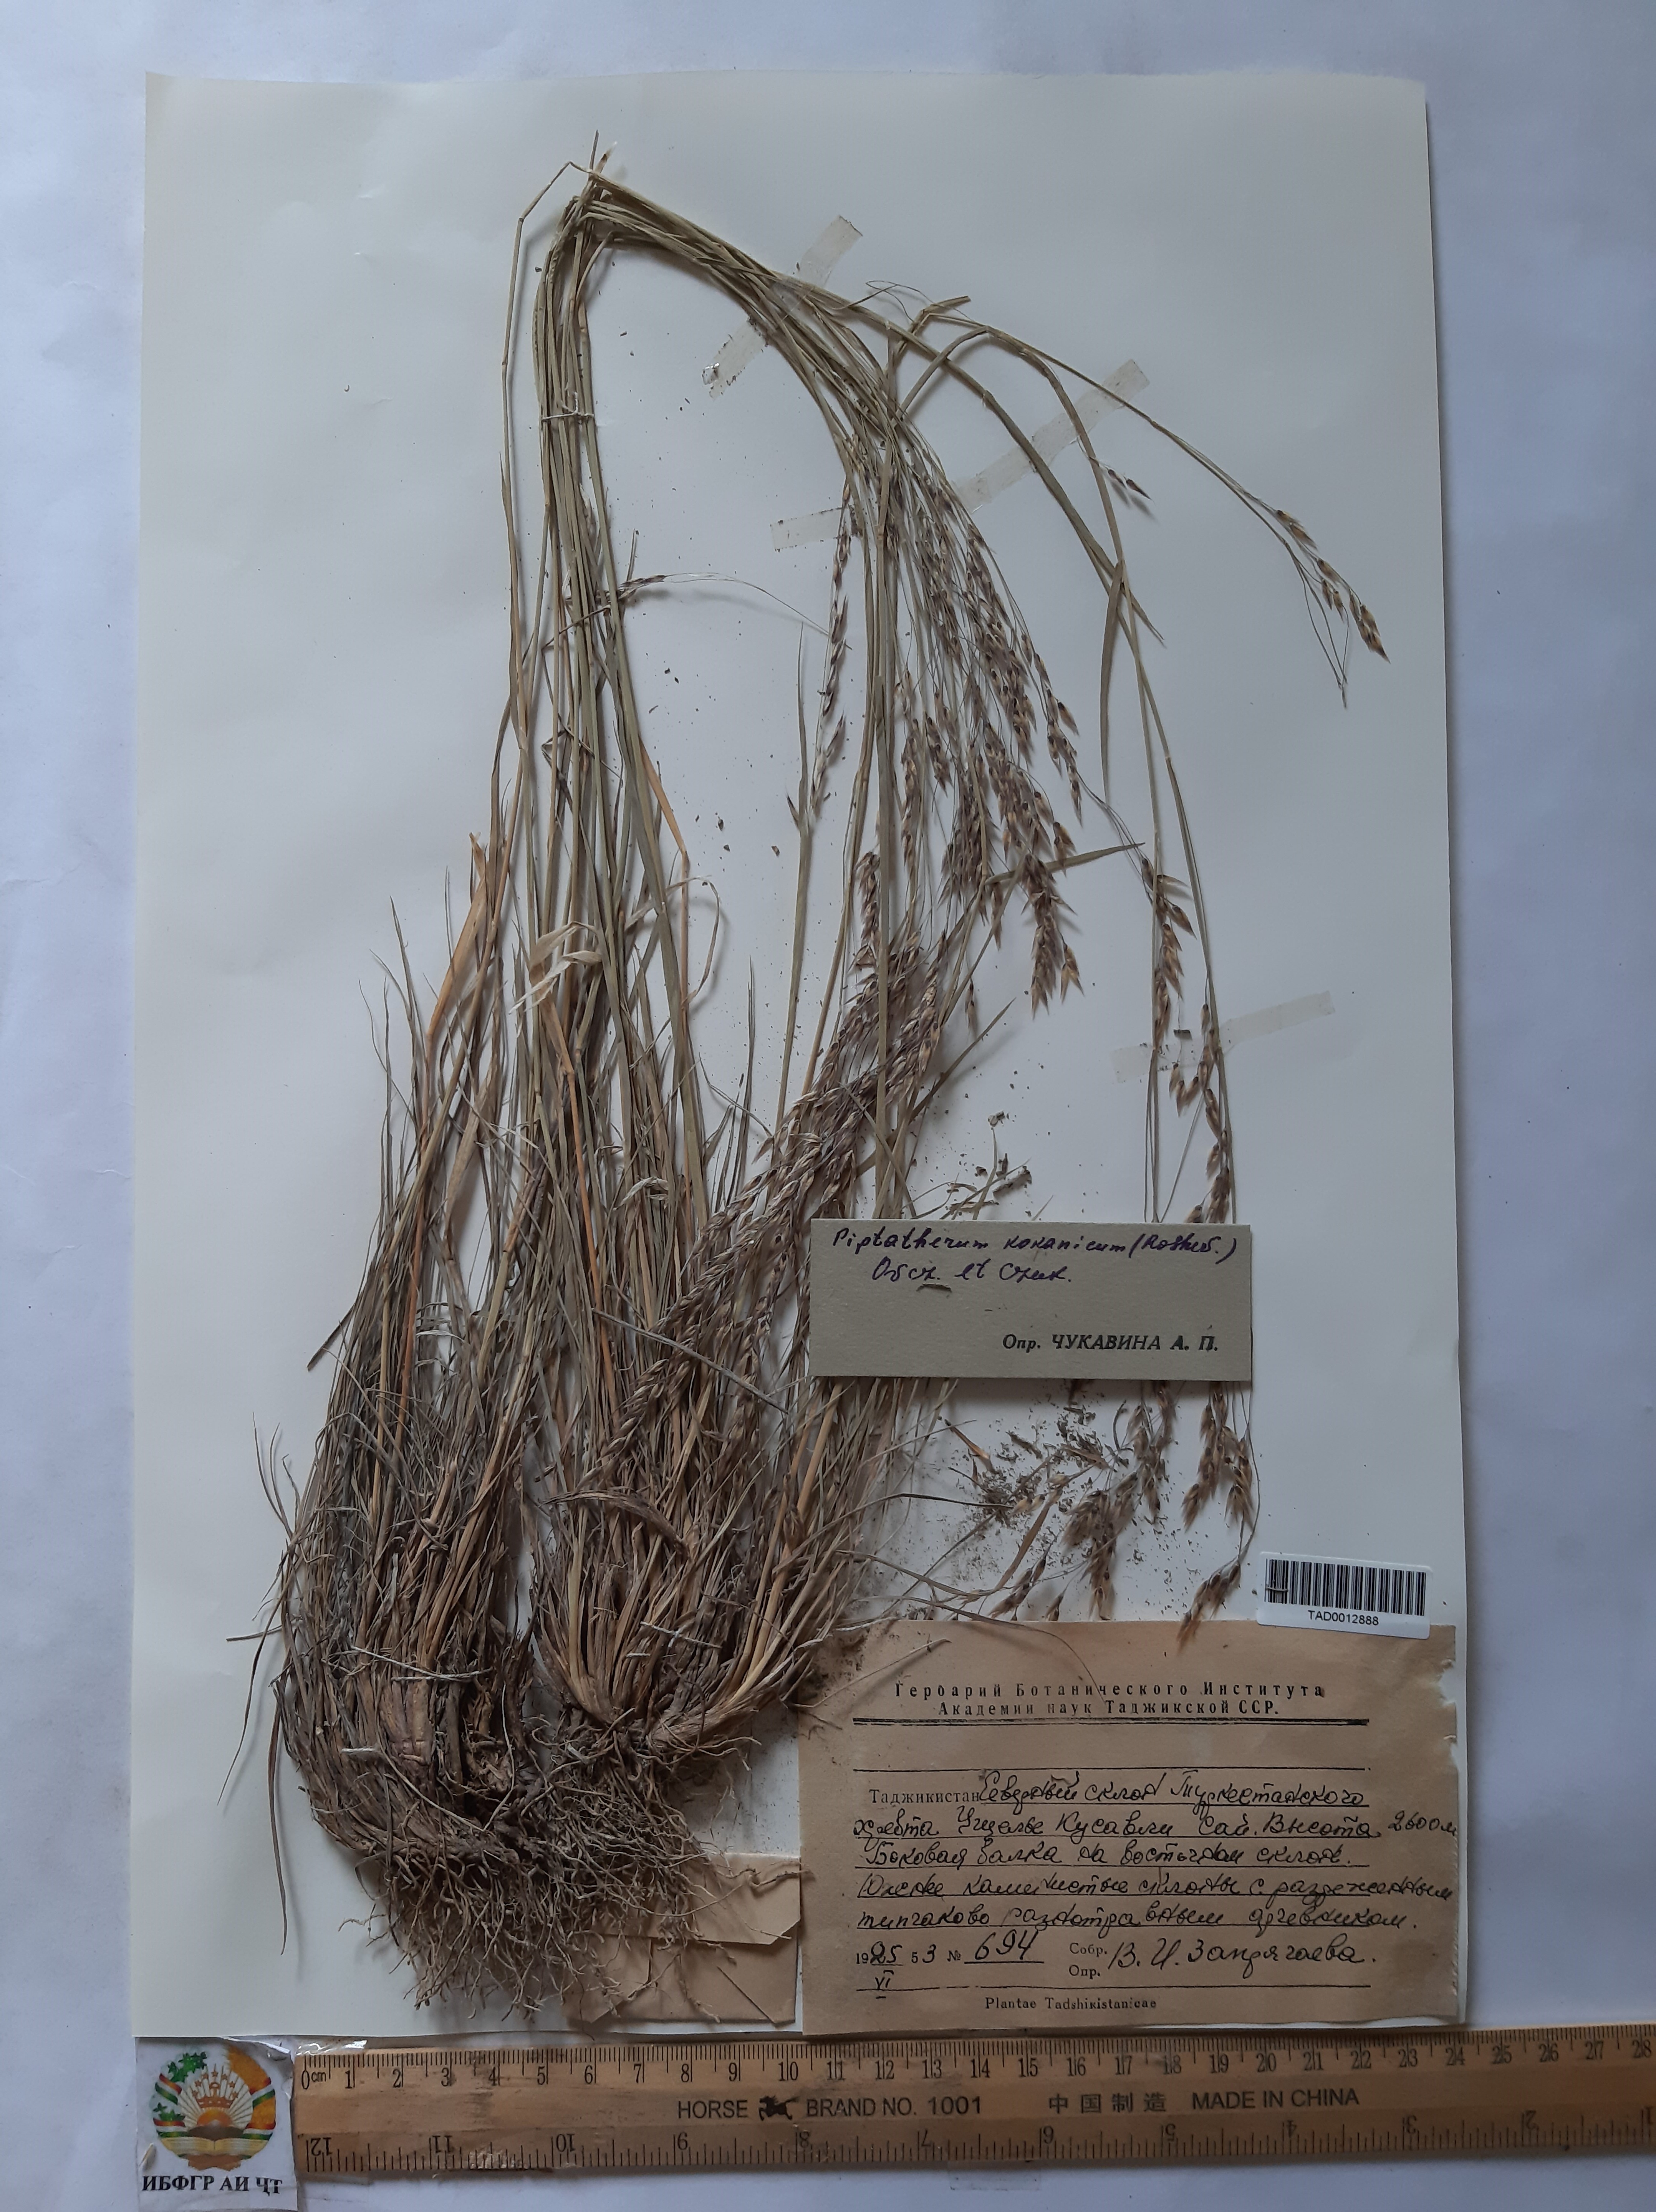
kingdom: Plantae
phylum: Tracheophyta
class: Liliopsida
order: Poales
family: Poaceae
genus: Piptatherum
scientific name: Piptatherum songaricum
